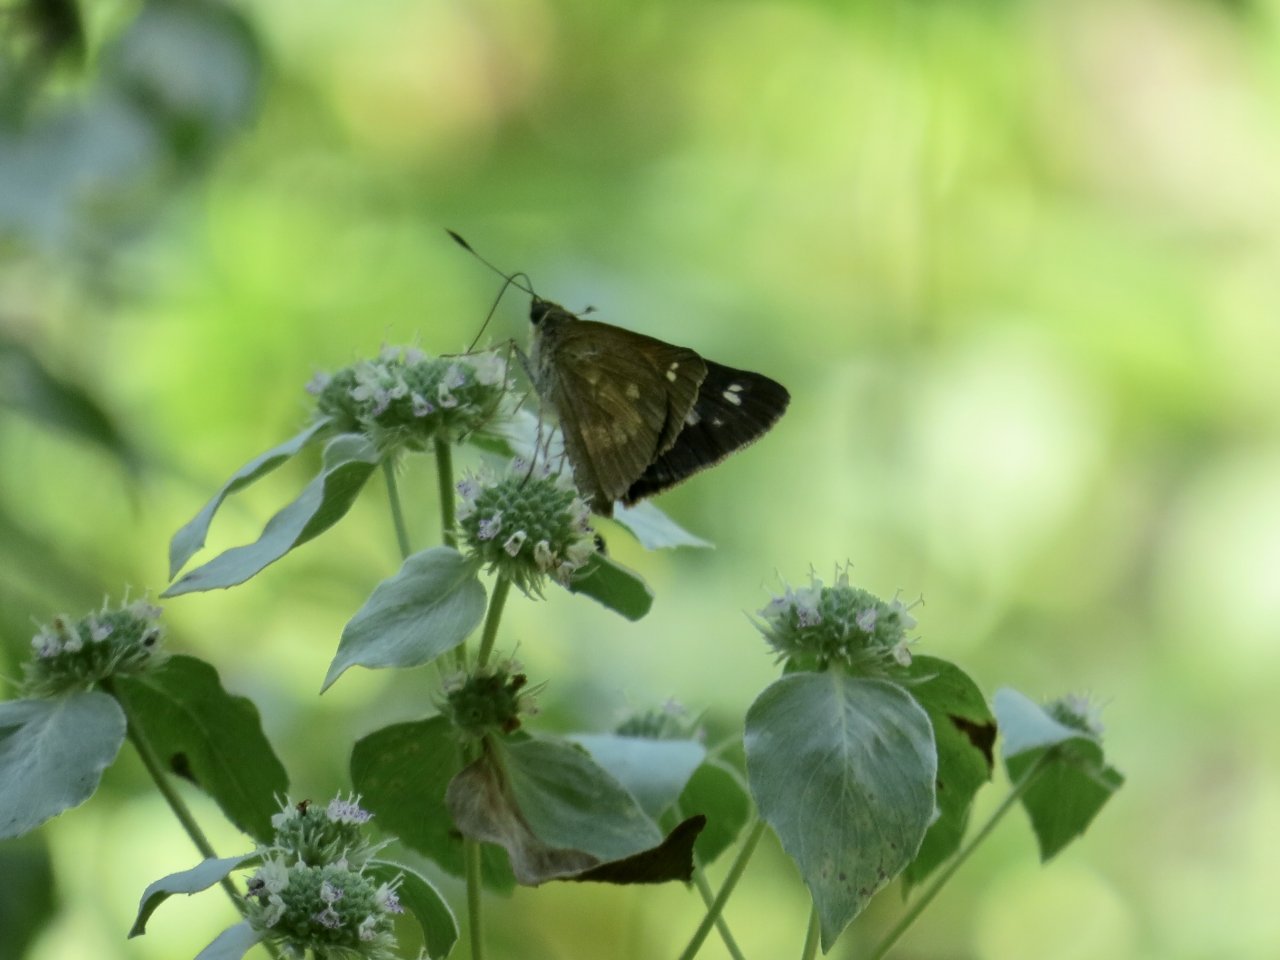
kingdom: Animalia
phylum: Arthropoda
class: Insecta
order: Lepidoptera
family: Hesperiidae
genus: Poanes
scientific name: Poanes viator
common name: Broad-winged Skipper
